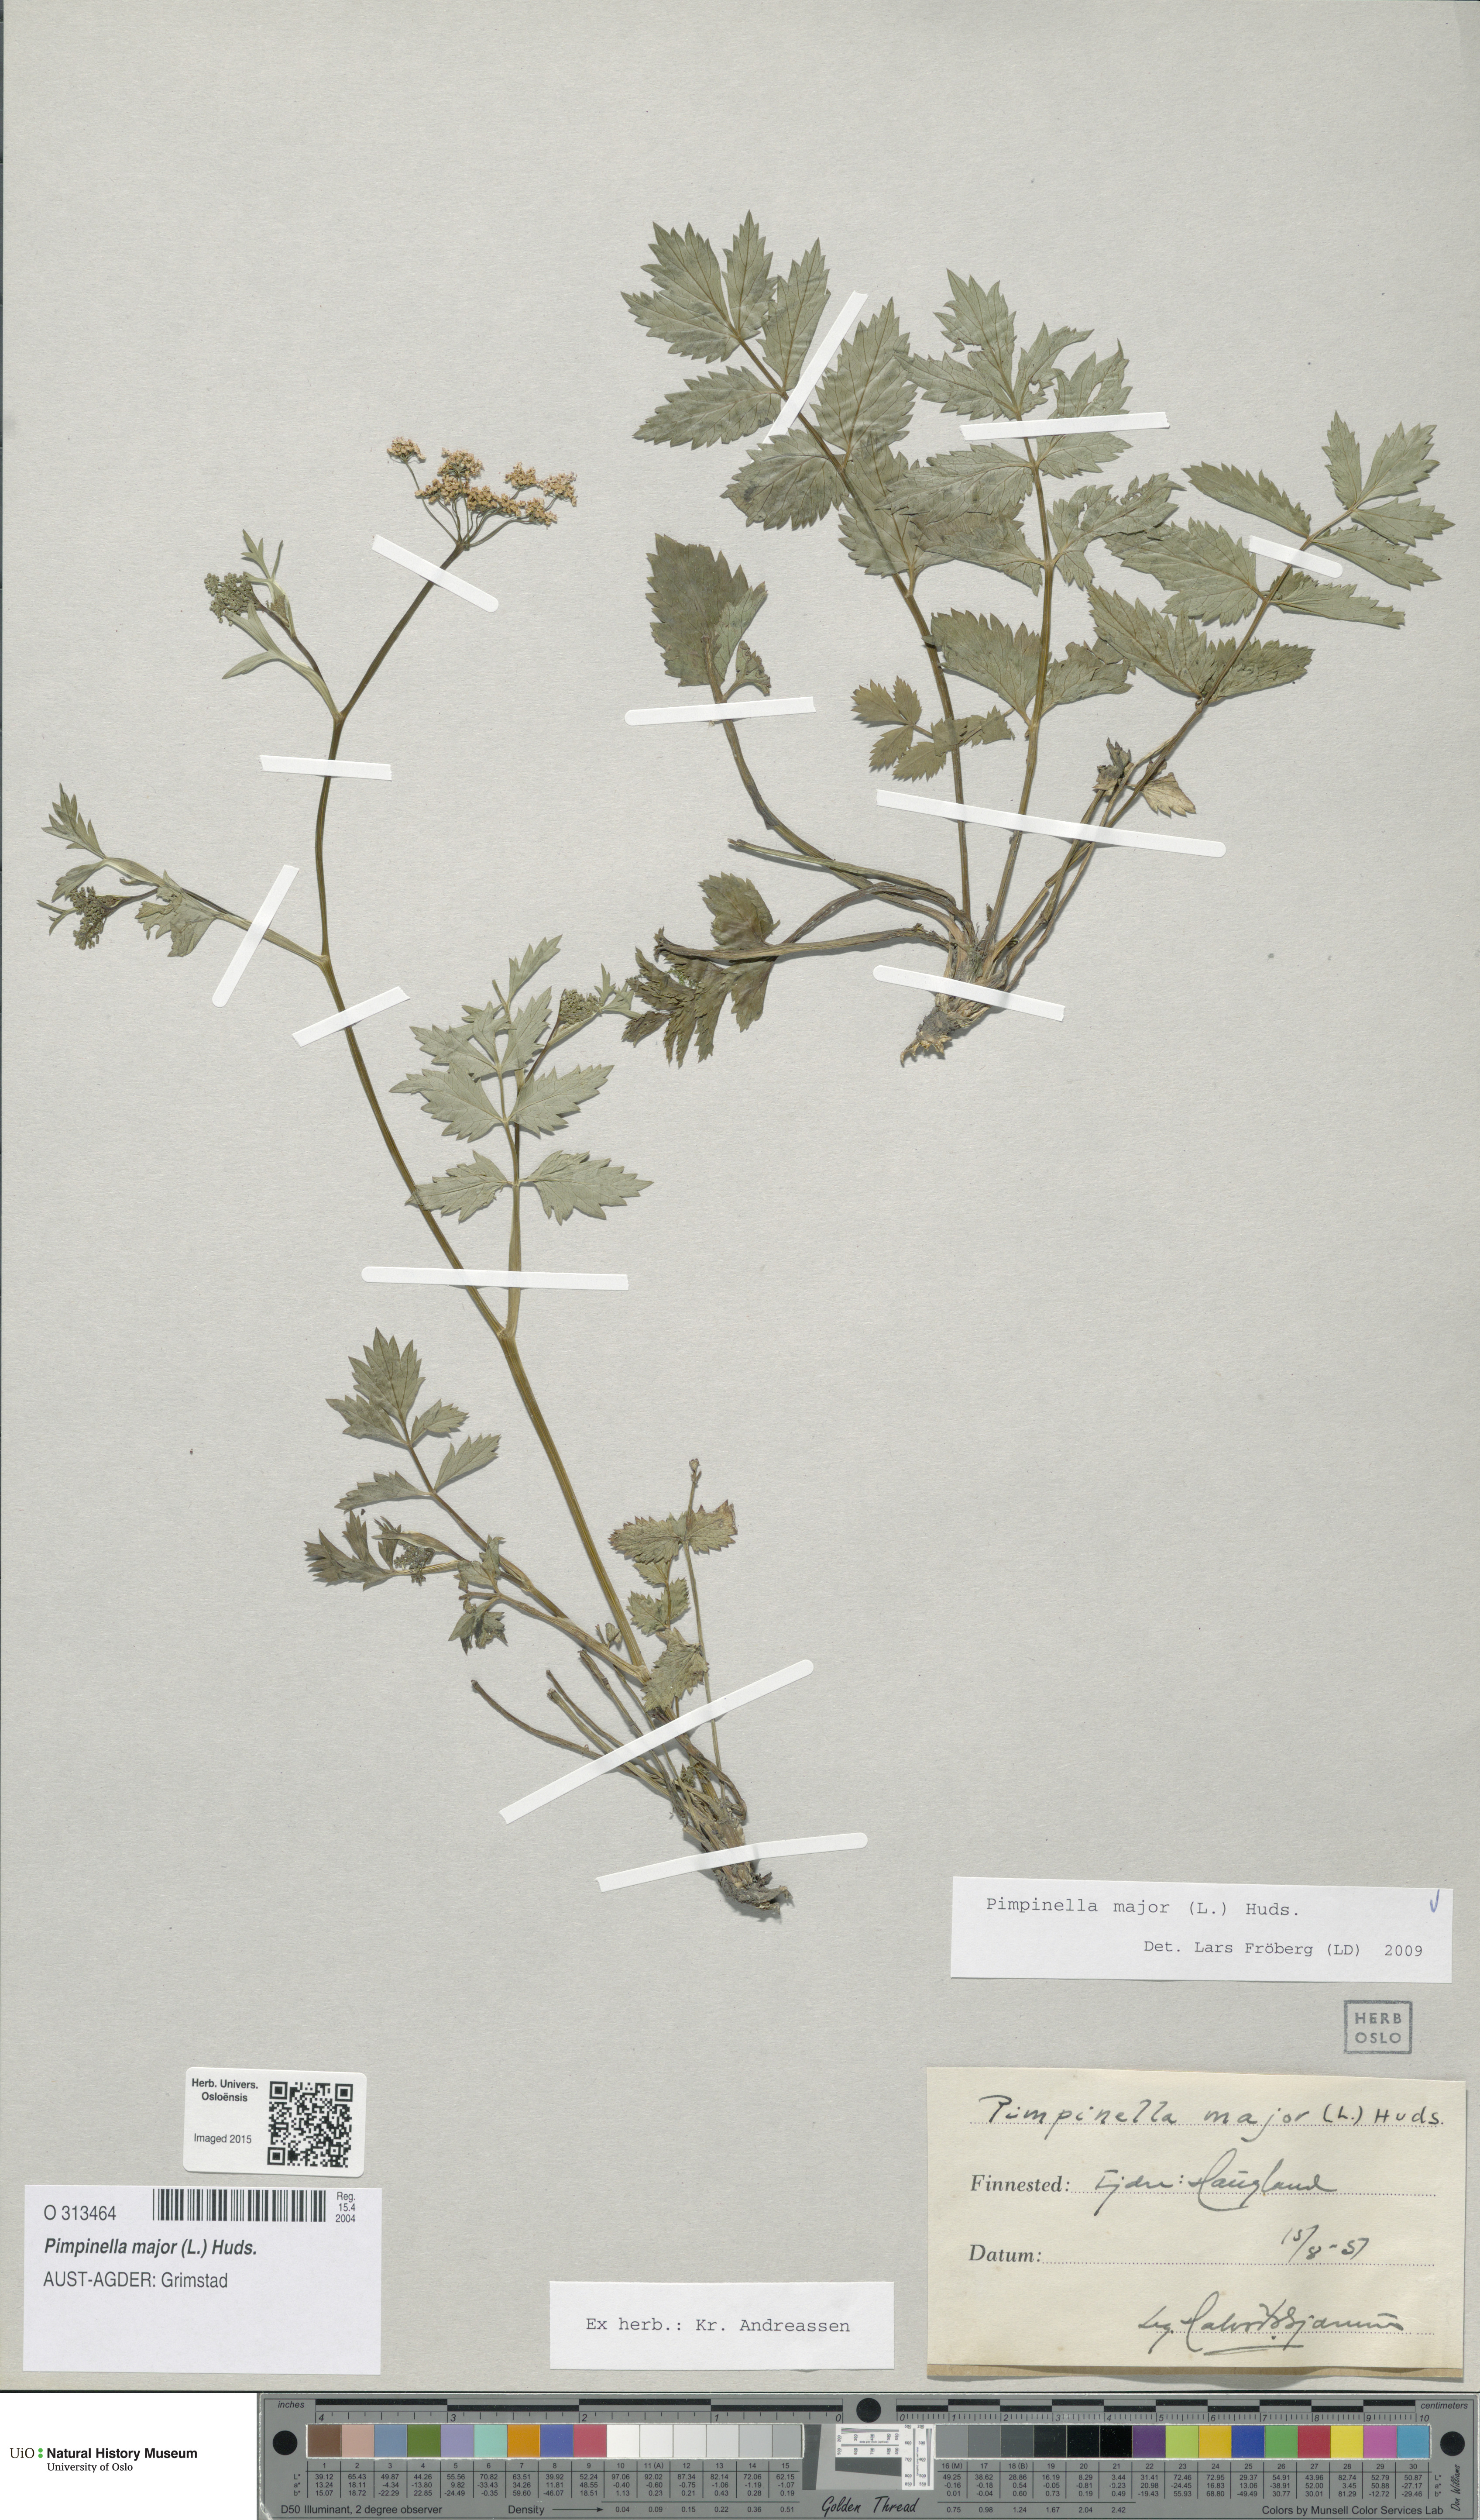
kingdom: Plantae
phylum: Tracheophyta
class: Magnoliopsida
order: Apiales
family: Apiaceae
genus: Pimpinella
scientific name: Pimpinella major
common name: Greater burnet-saxifrage
